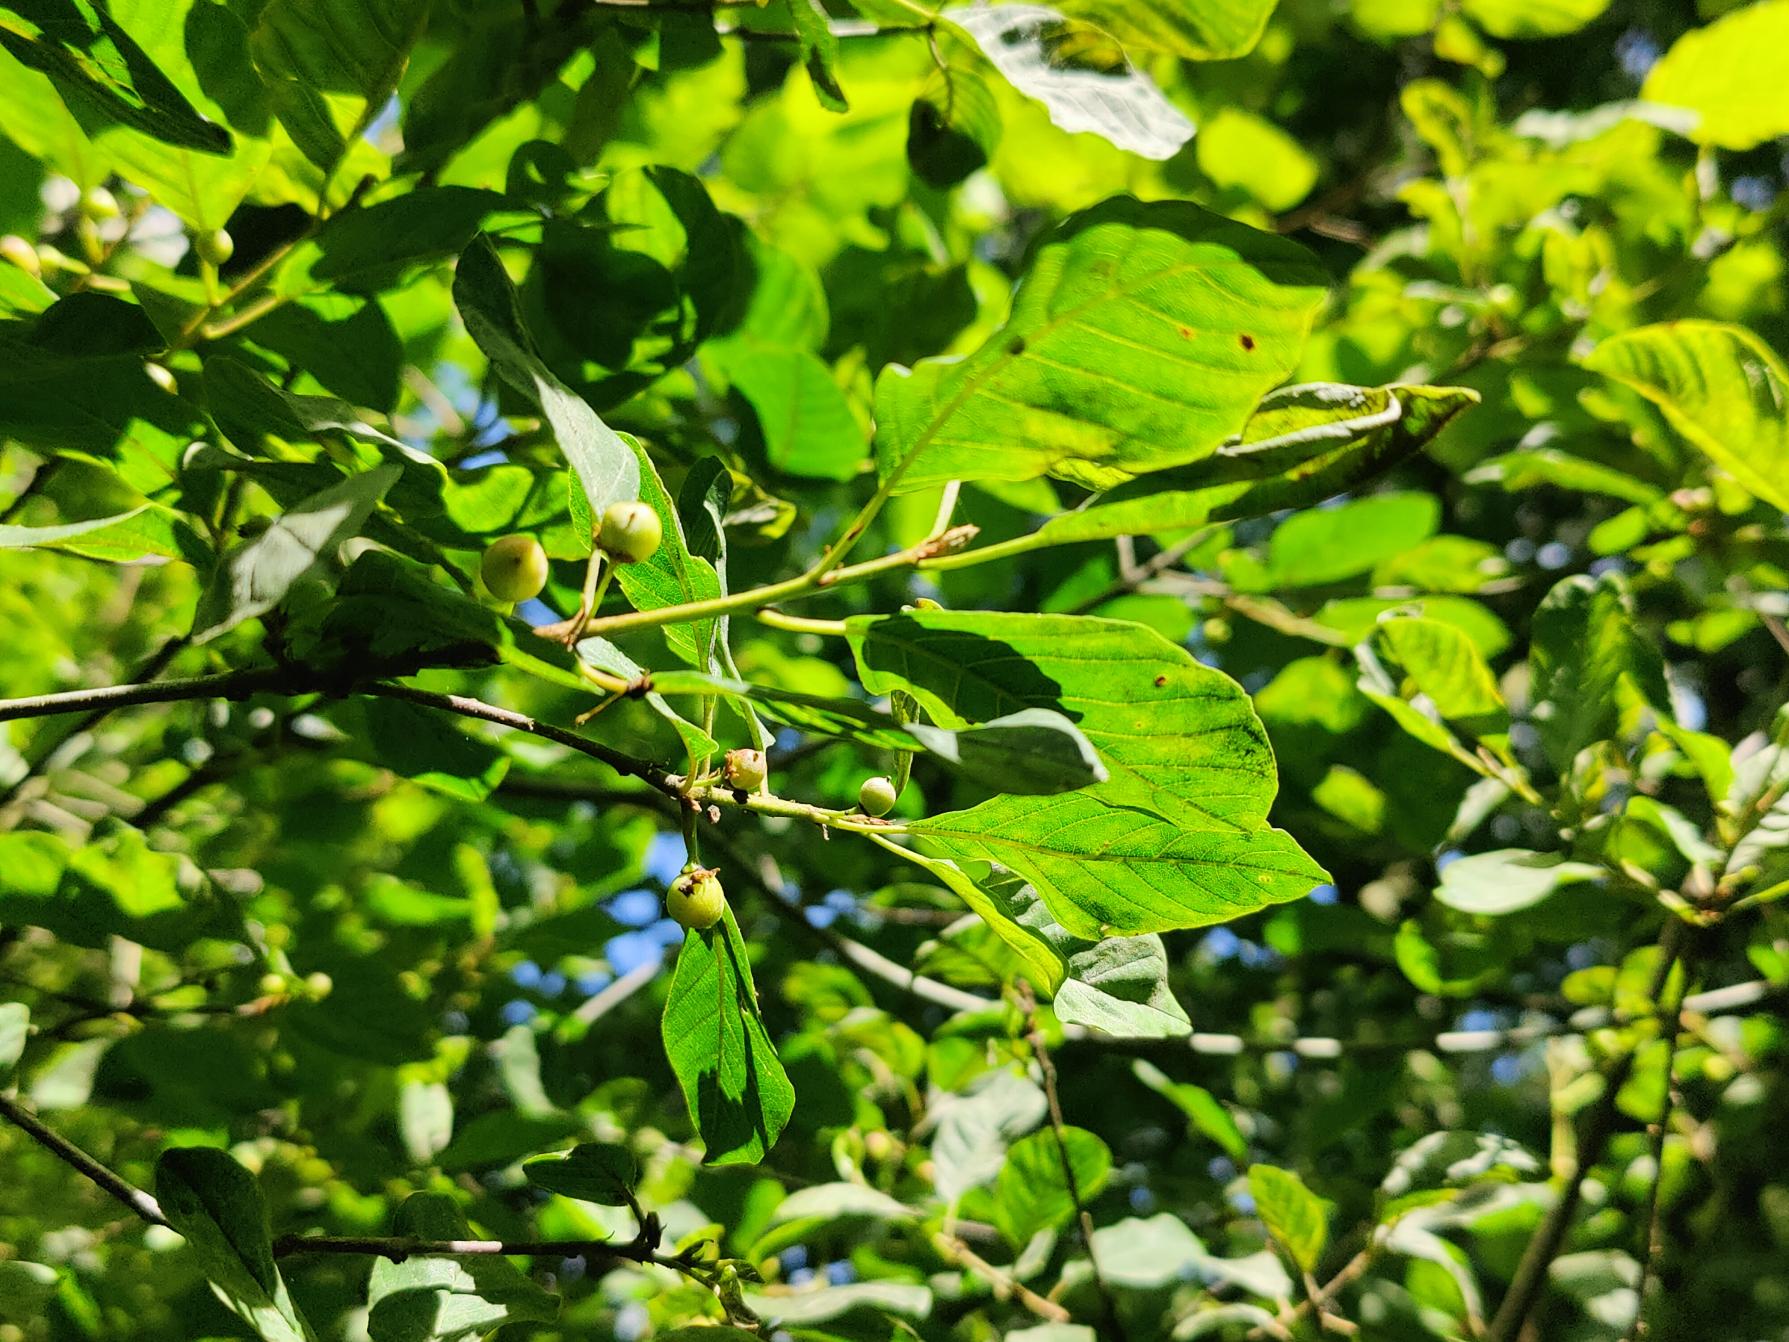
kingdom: Plantae
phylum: Tracheophyta
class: Magnoliopsida
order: Rosales
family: Rhamnaceae
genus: Frangula
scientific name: Frangula alnus
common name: Tørst
